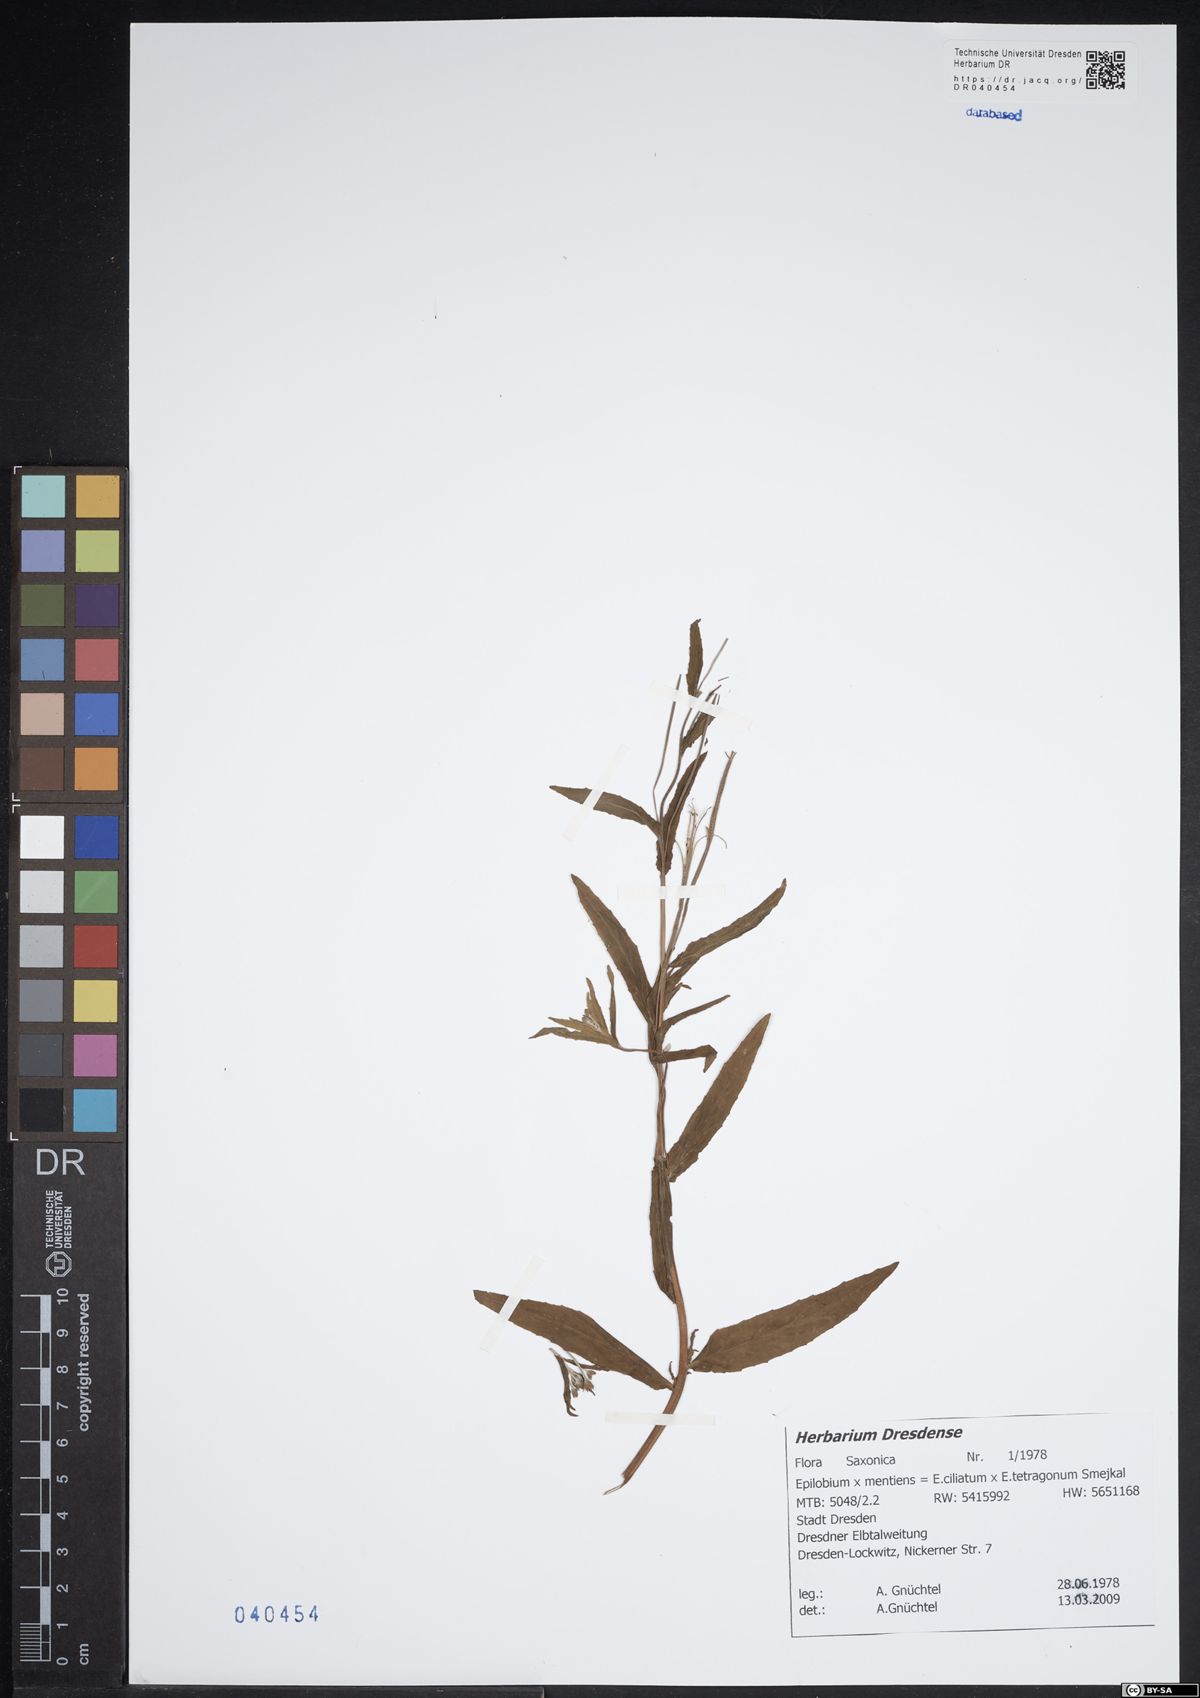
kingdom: Plantae
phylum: Tracheophyta
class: Magnoliopsida
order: Myrtales
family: Onagraceae
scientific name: Onagraceae
